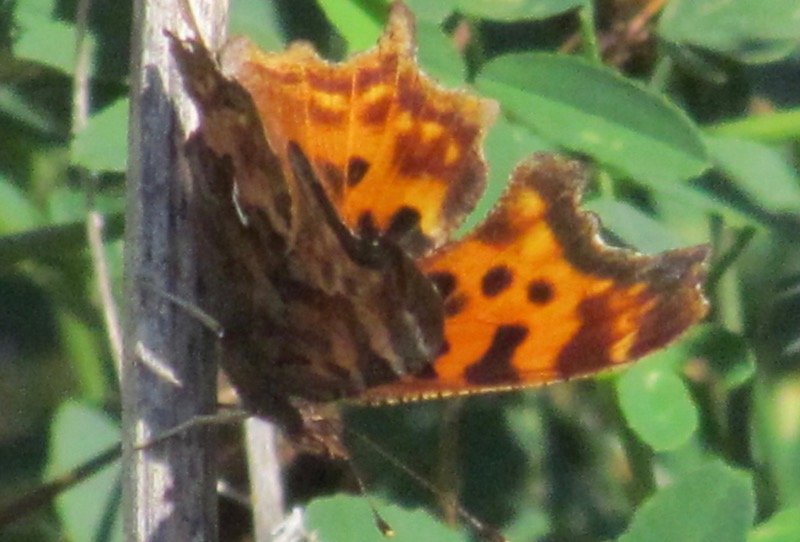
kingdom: Animalia
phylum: Arthropoda
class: Insecta
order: Lepidoptera
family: Nymphalidae
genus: Polygonia
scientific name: Polygonia satyrus
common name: Satyr Comma
